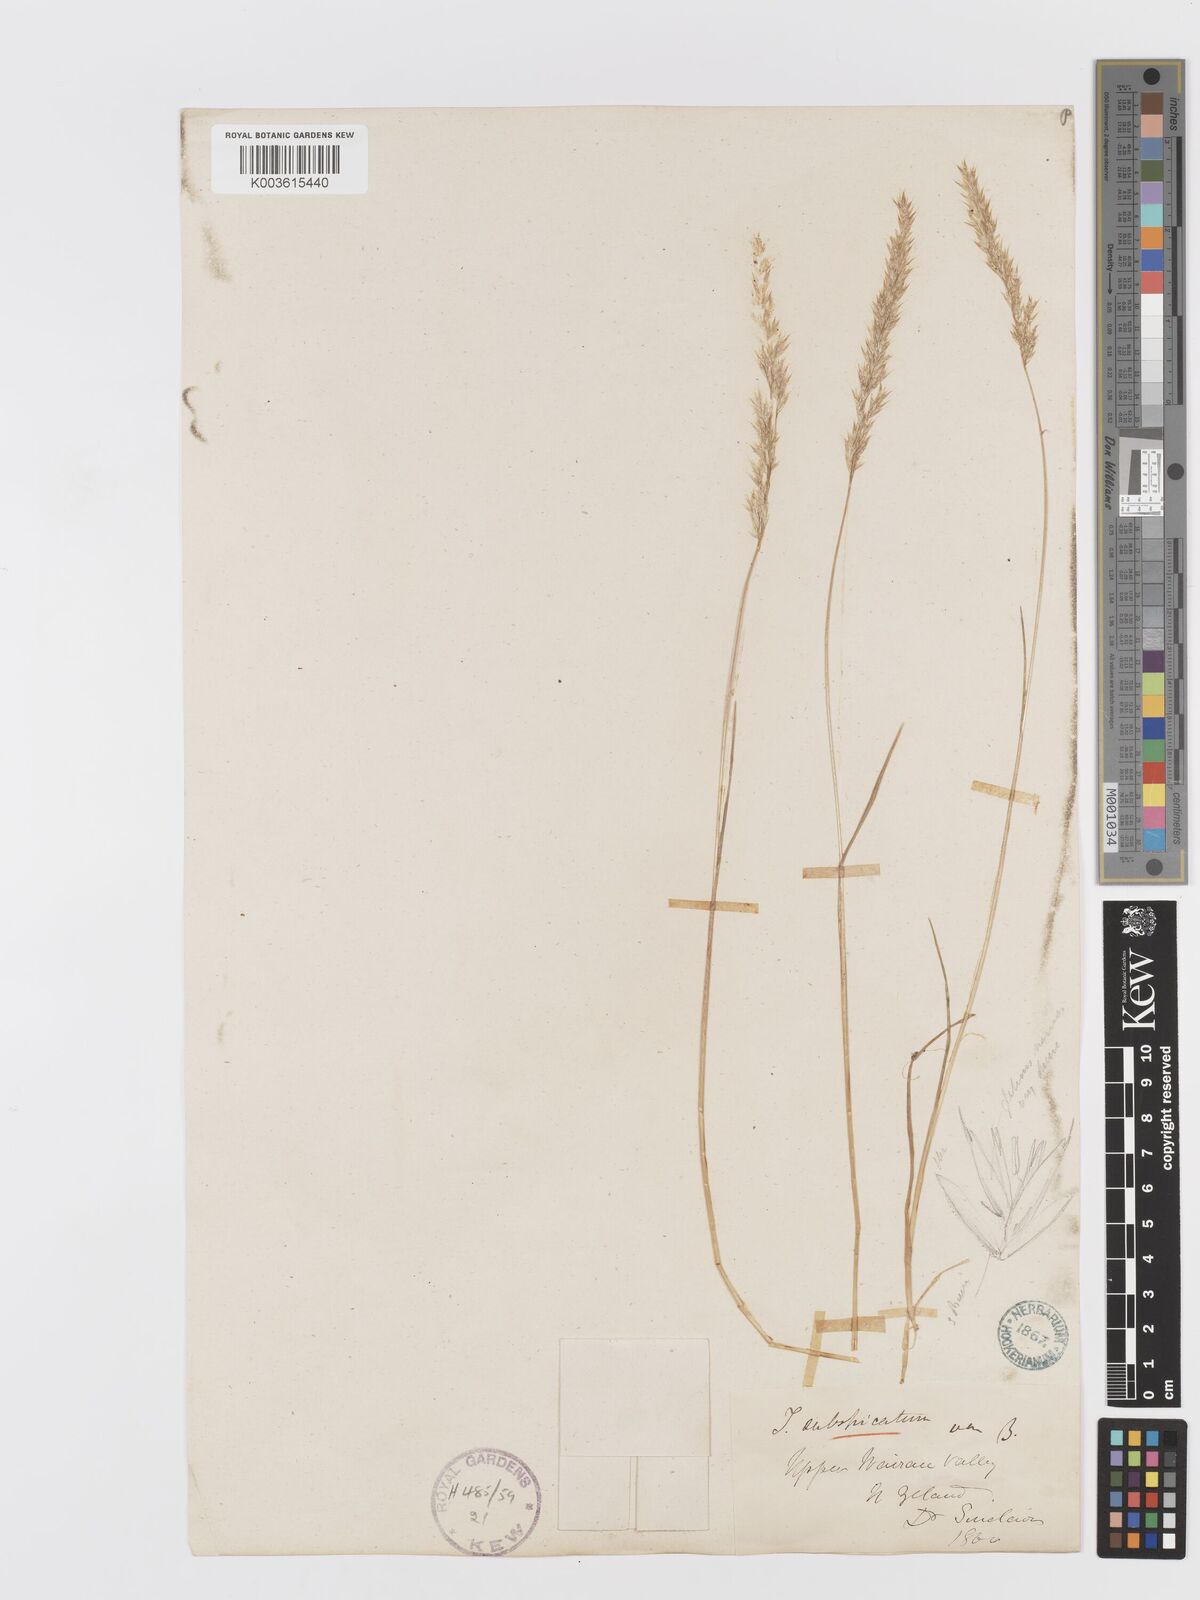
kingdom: Plantae
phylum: Tracheophyta
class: Liliopsida
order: Poales
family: Poaceae
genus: Koeleria
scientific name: Koeleria spicata
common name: Mountain trisetum
